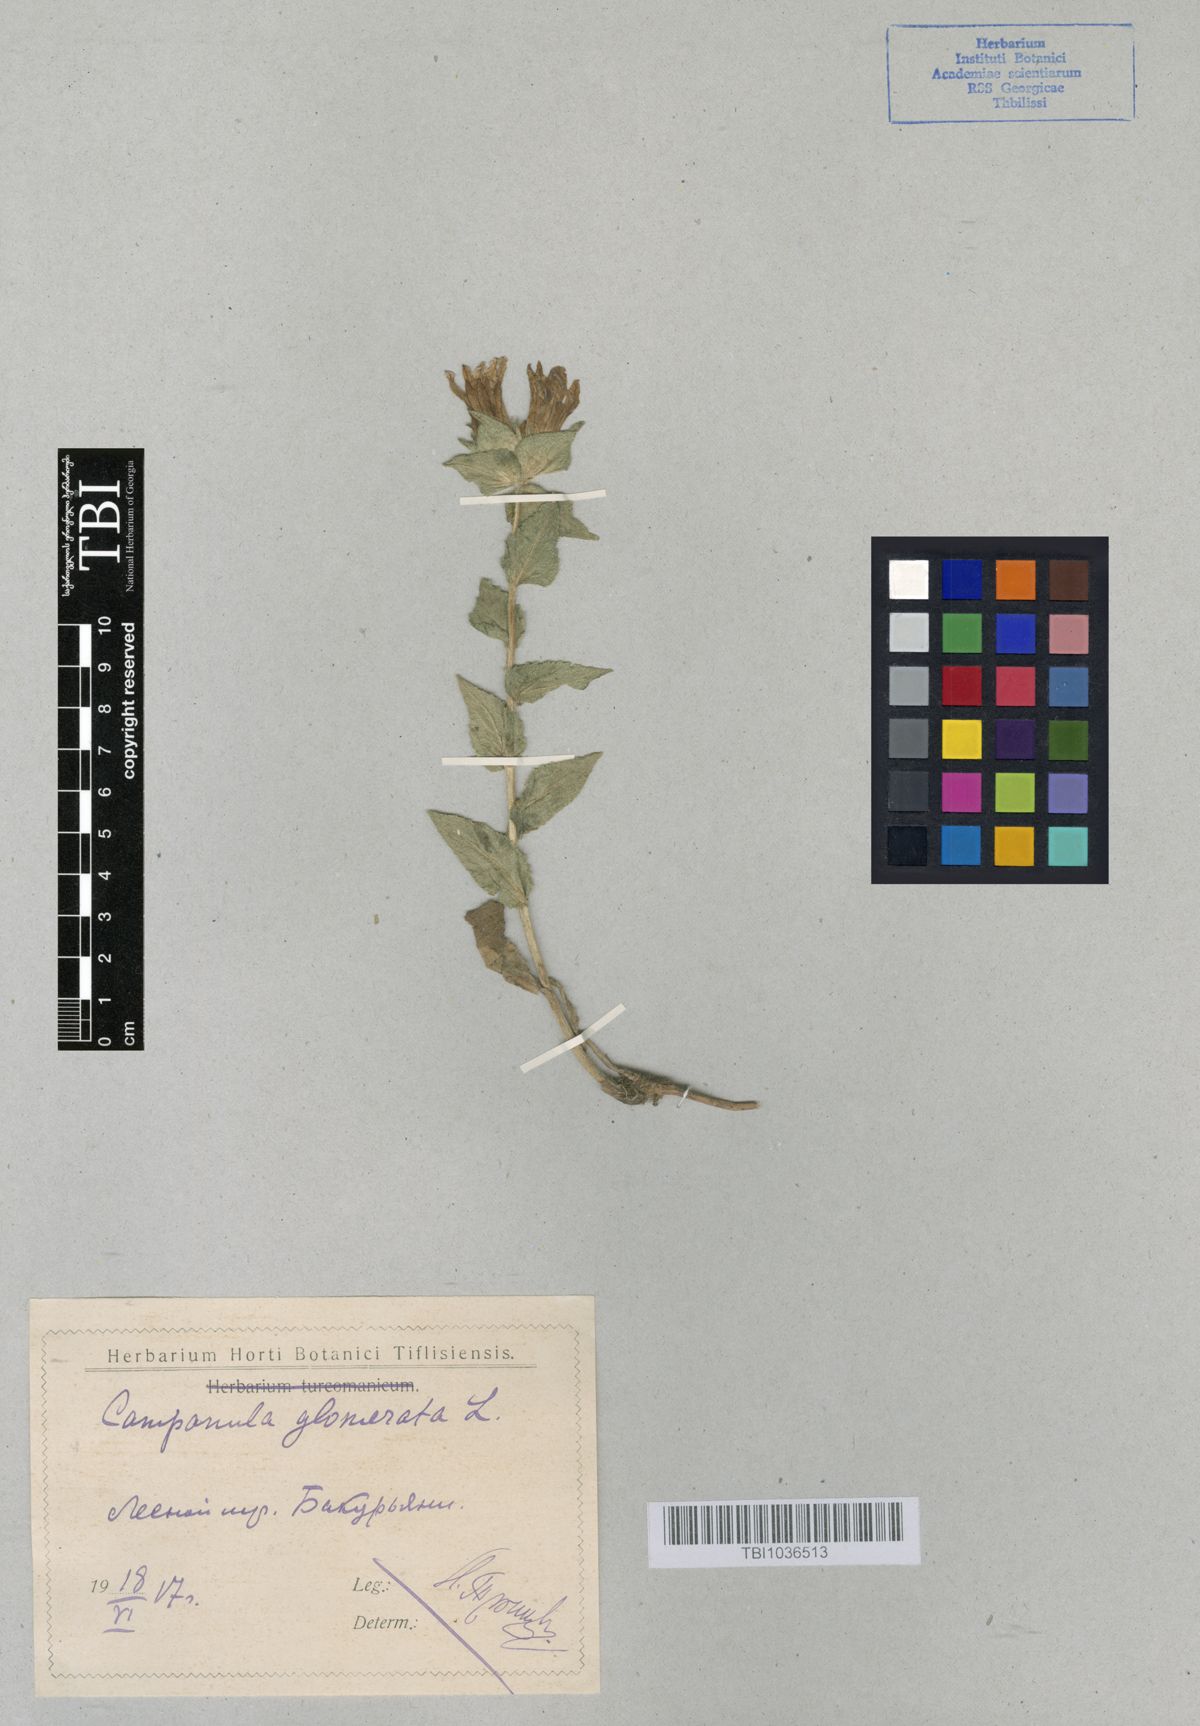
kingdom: Plantae
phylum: Tracheophyta
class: Magnoliopsida
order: Asterales
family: Campanulaceae
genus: Campanula
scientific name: Campanula glomerata
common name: Clustered bellflower
